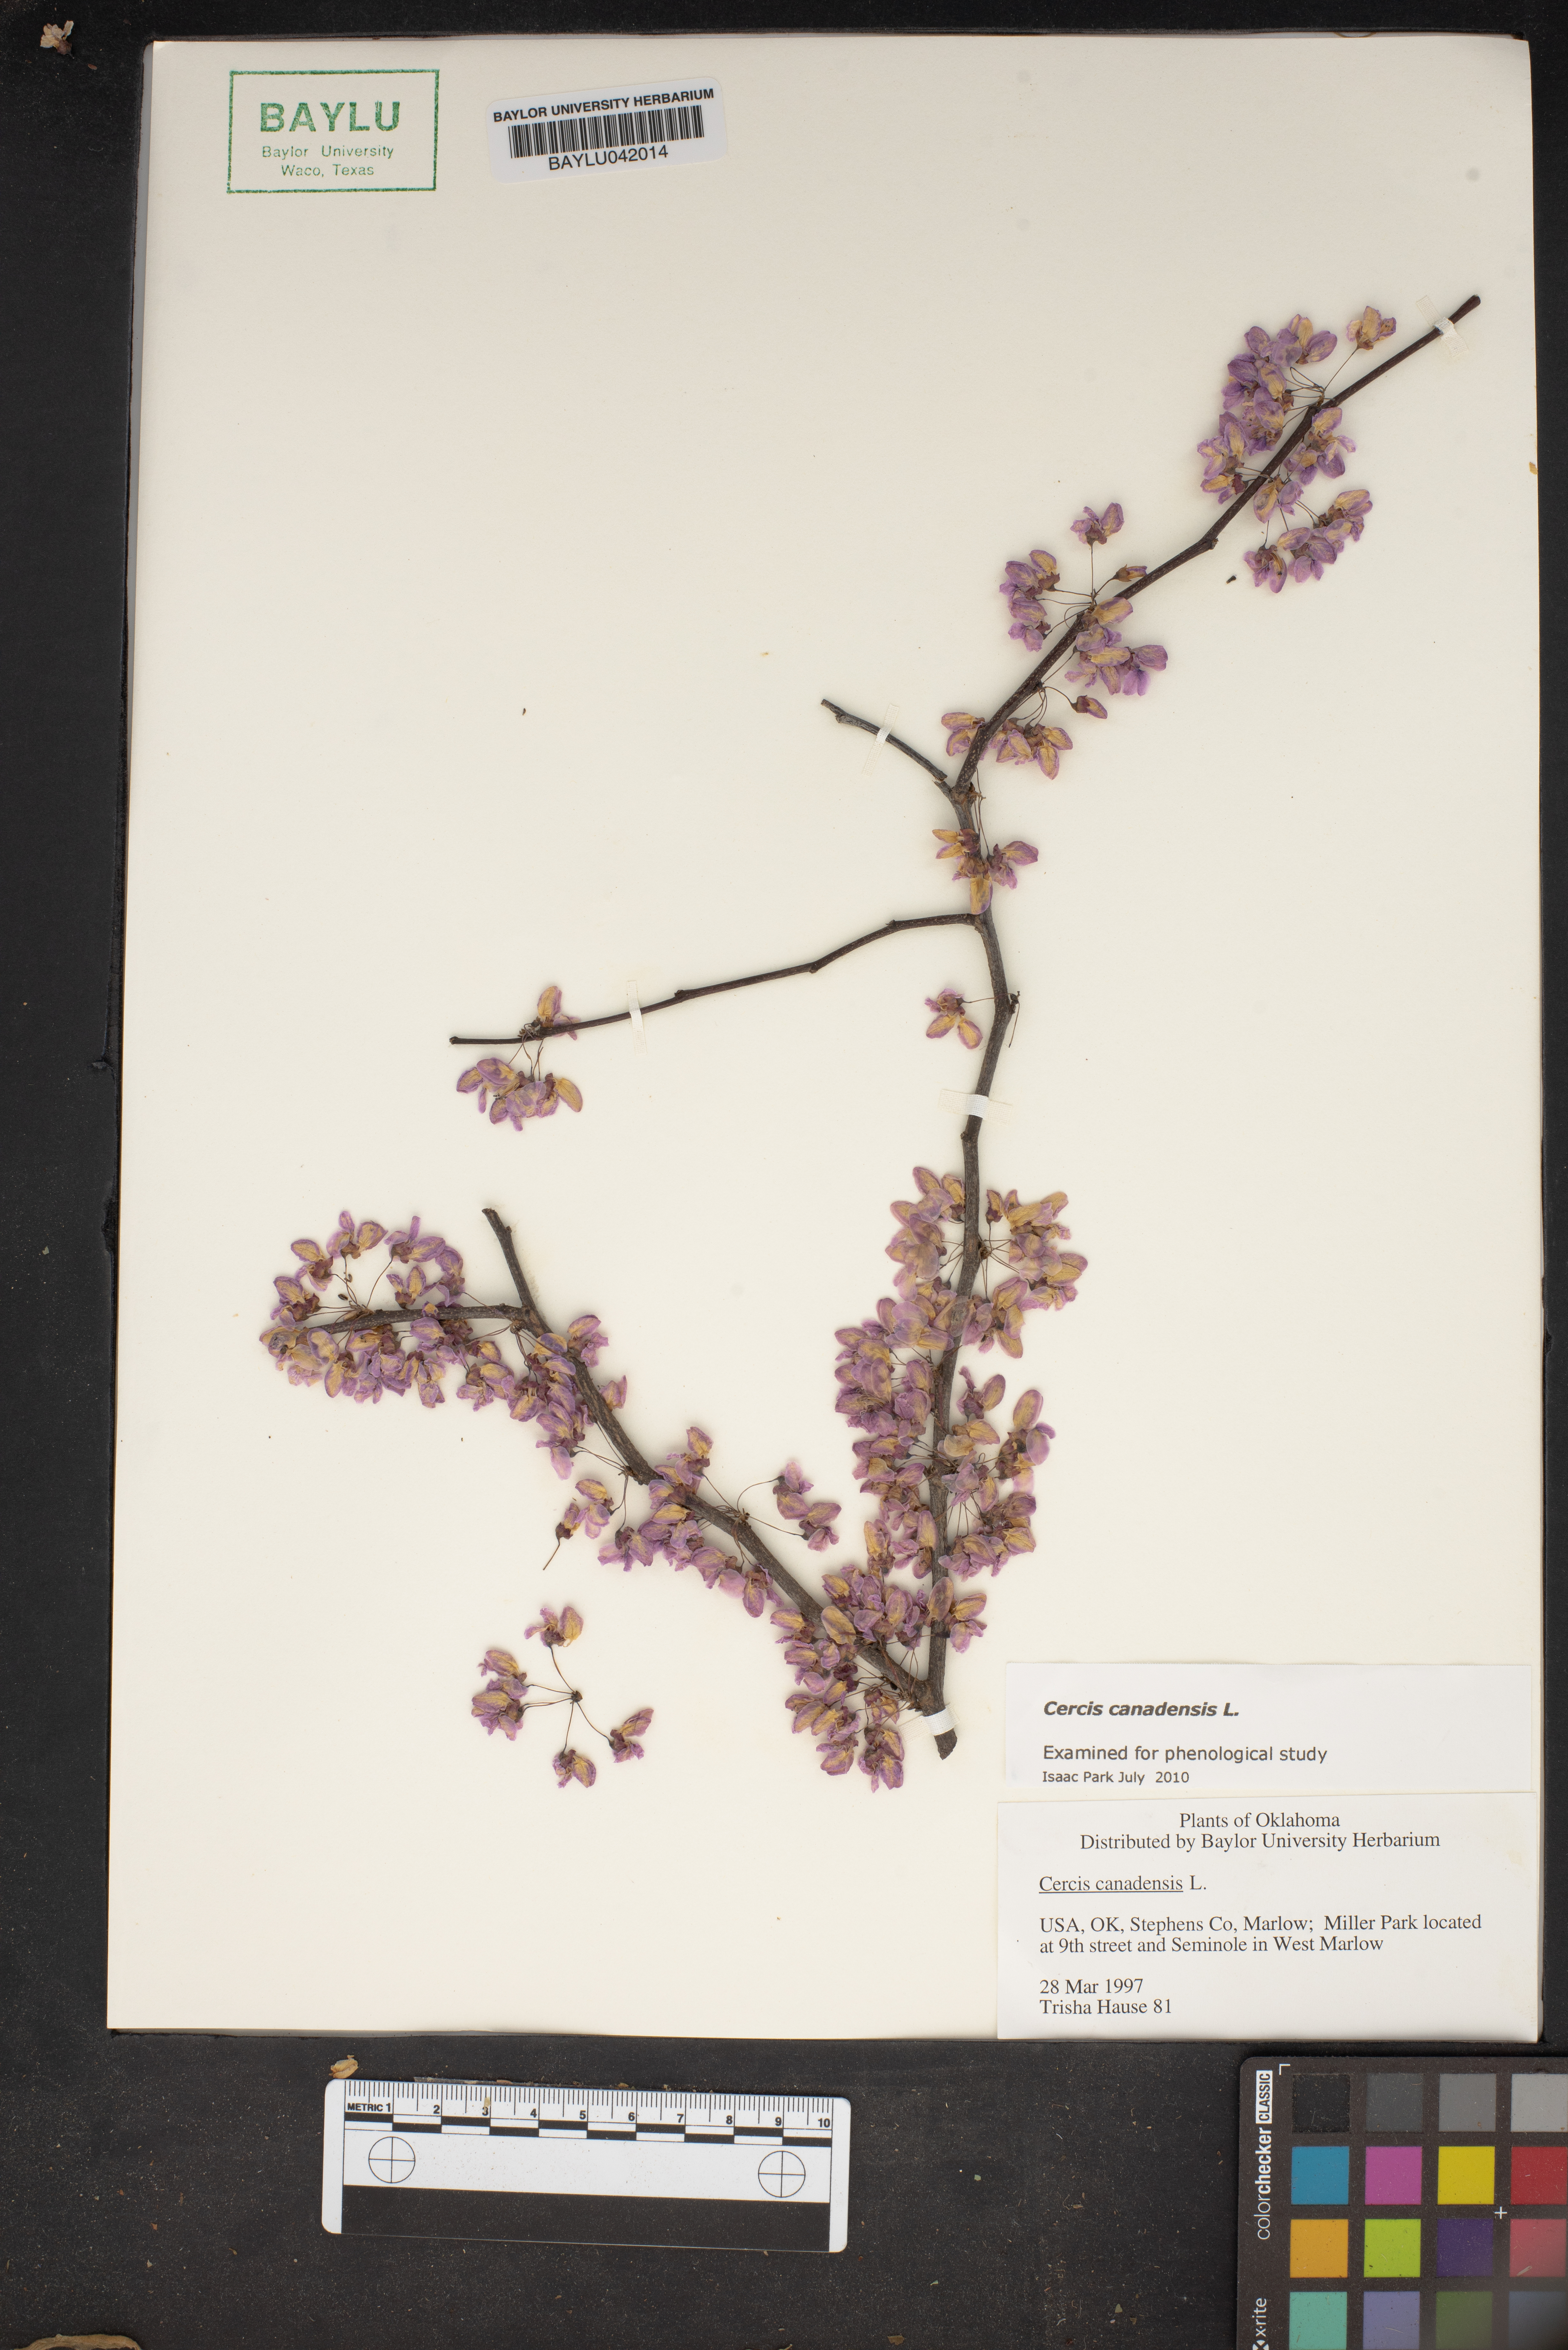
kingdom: Plantae
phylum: Tracheophyta
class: Magnoliopsida
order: Fabales
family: Fabaceae
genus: Cercis
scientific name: Cercis canadensis
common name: Eastern redbud
